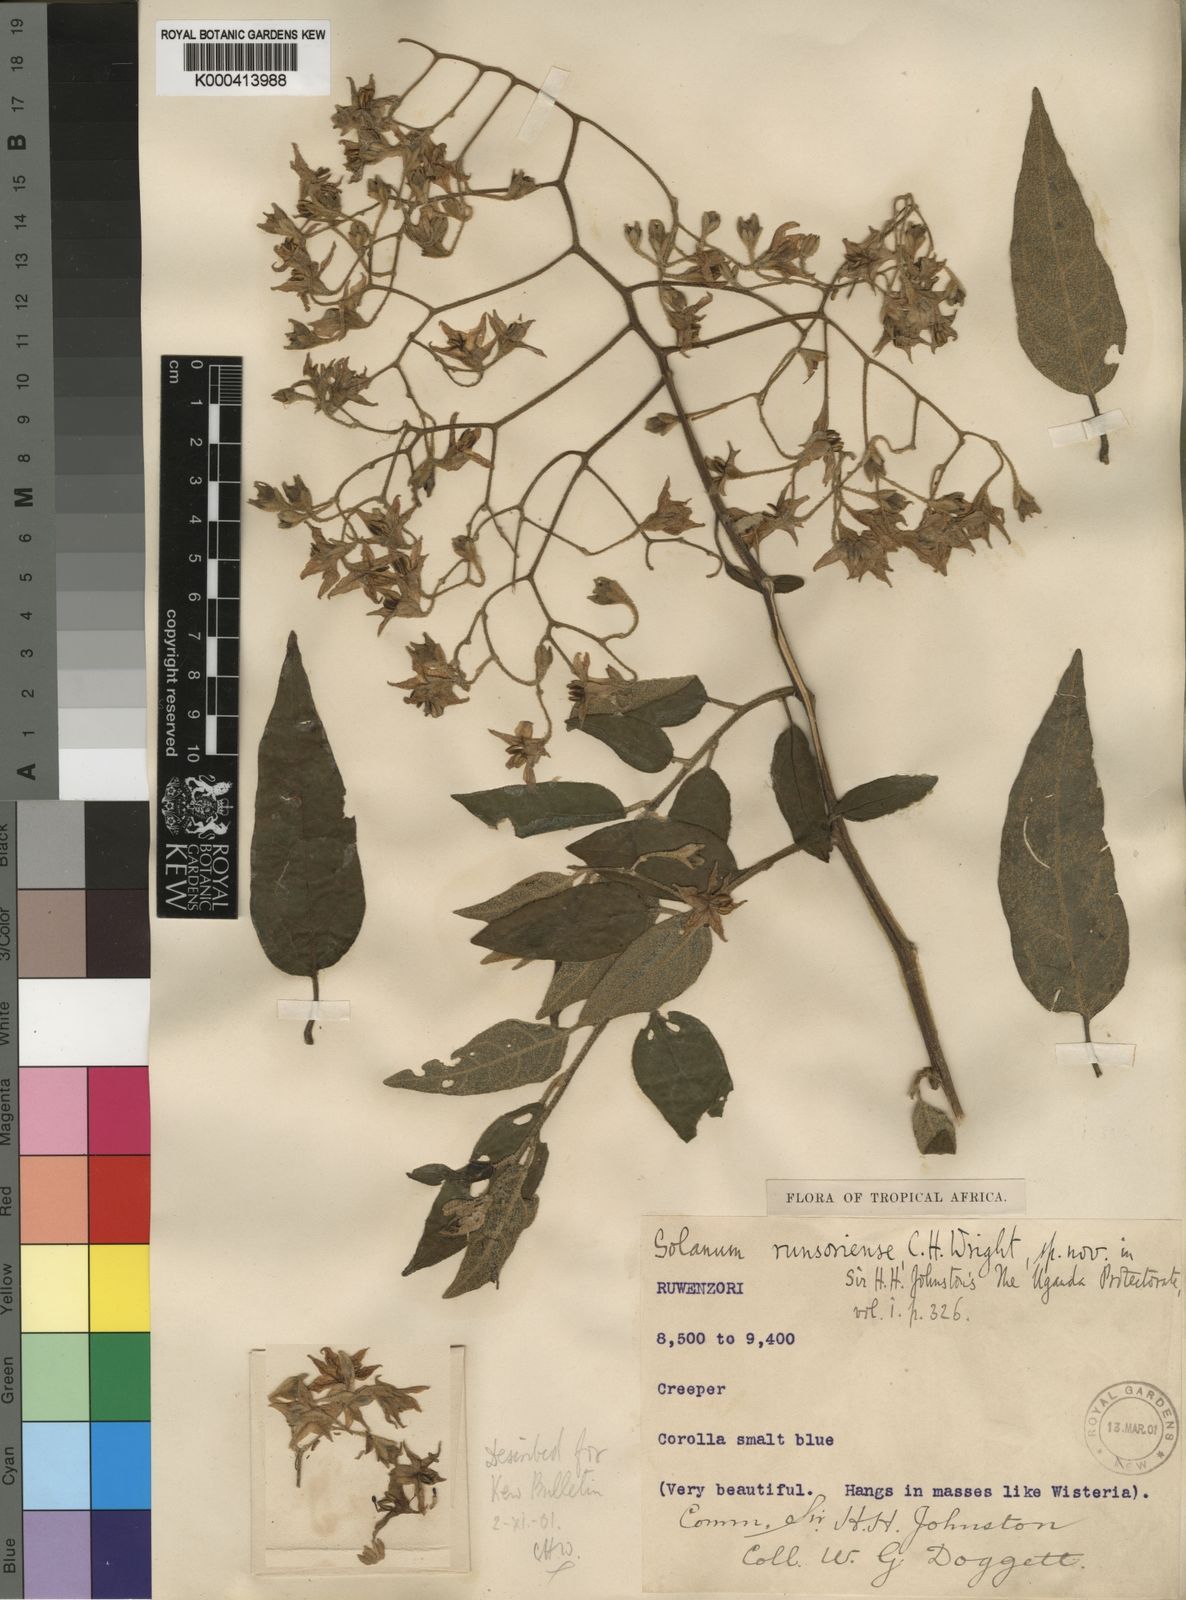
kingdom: Plantae
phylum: Tracheophyta
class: Magnoliopsida
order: Solanales
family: Solanaceae
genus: Solanum
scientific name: Solanum runsoriense
